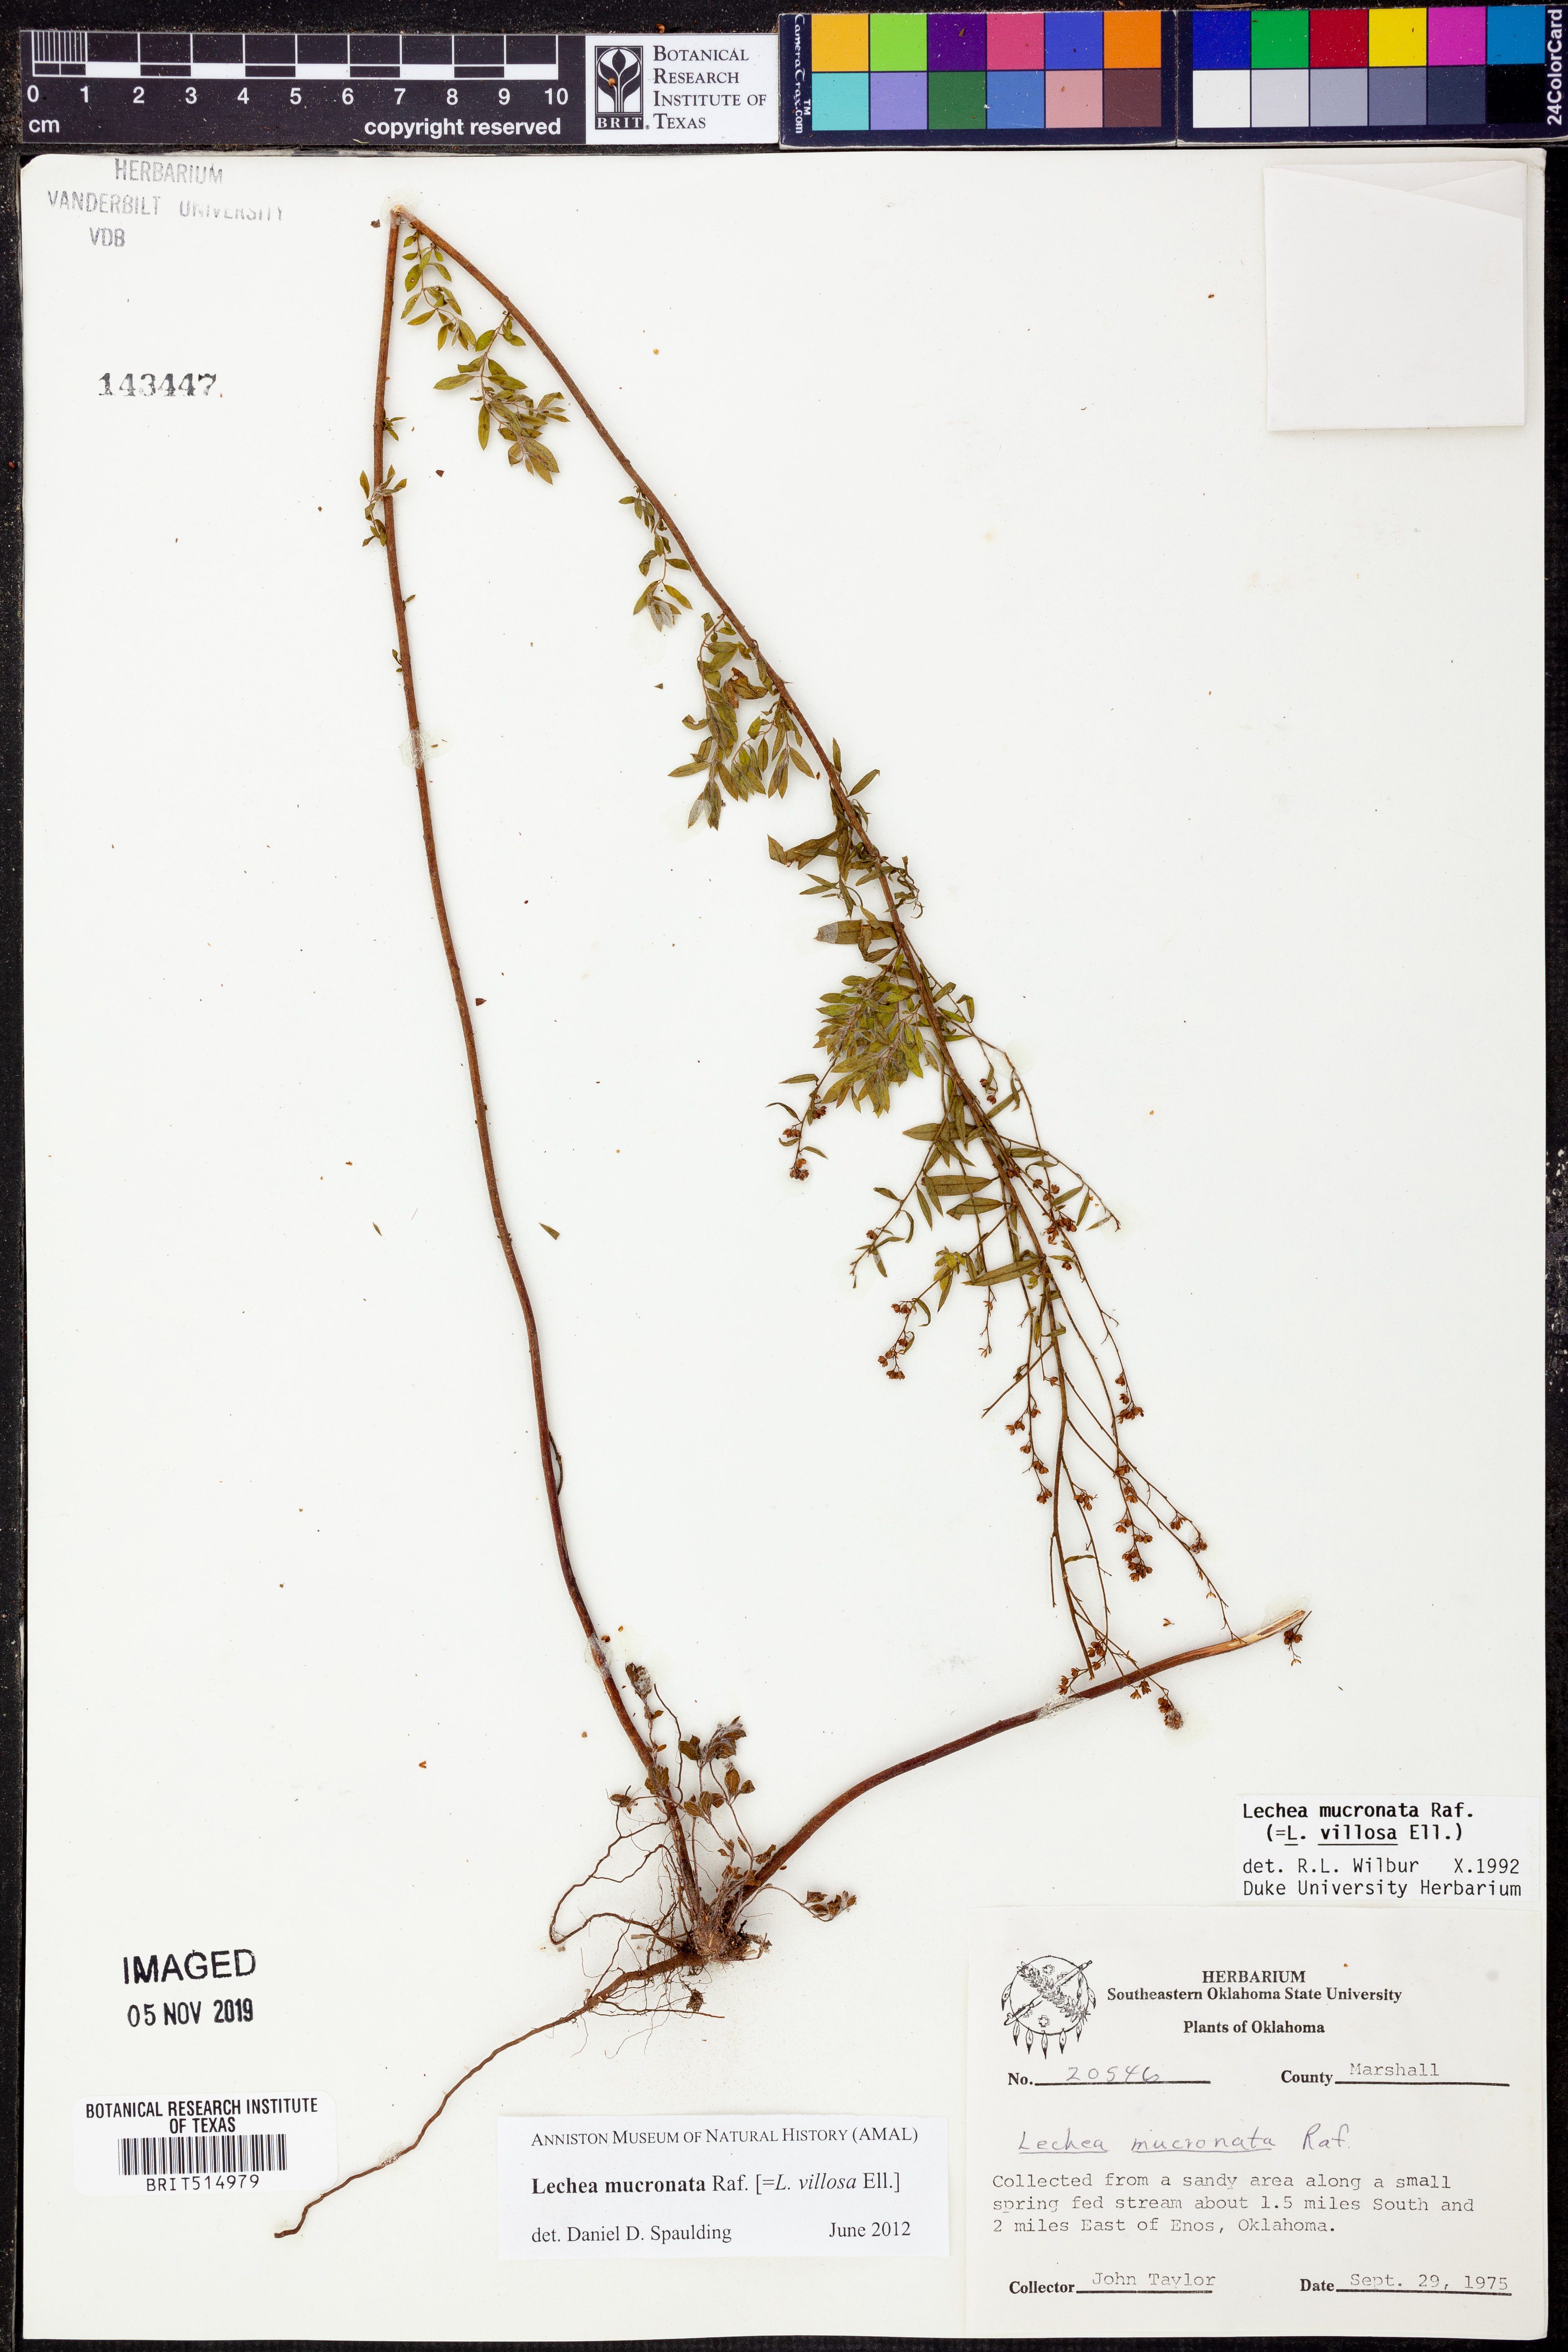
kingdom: Plantae
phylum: Tracheophyta
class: Magnoliopsida
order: Malvales
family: Cistaceae
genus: Lechea
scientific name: Lechea mucronata
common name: Hairy pinweed
